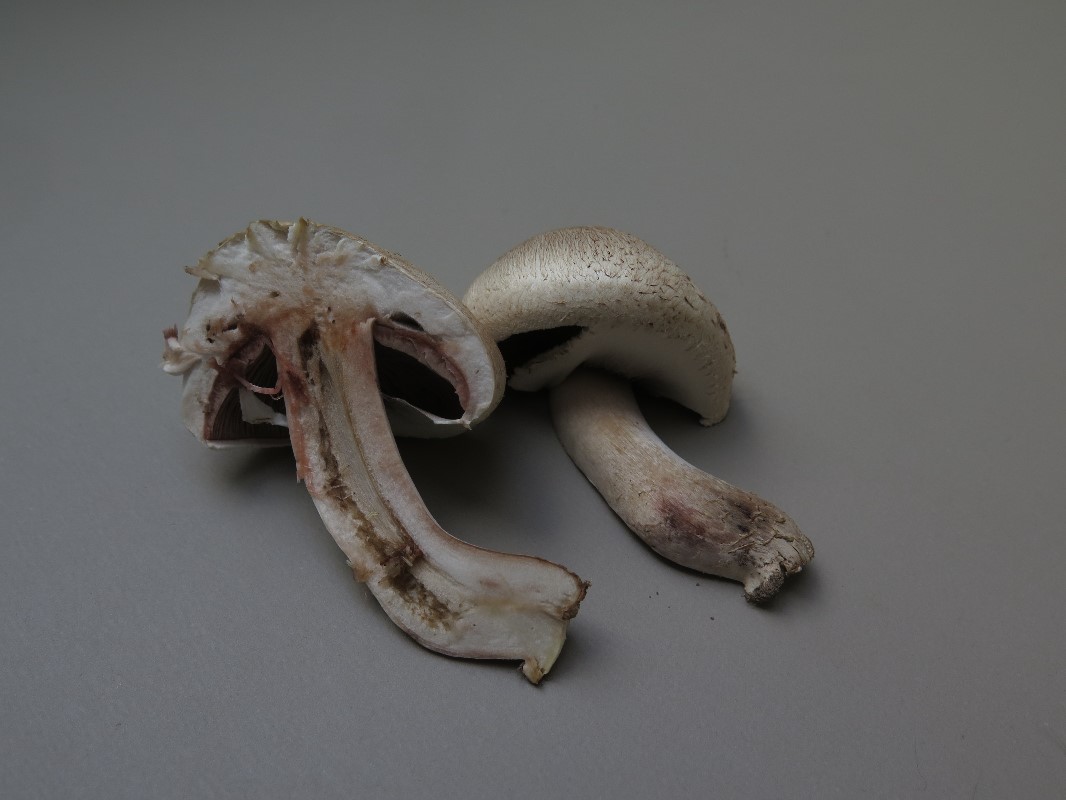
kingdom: Fungi
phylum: Basidiomycota
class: Agaricomycetes
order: Agaricales
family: Agaricaceae
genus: Agaricus
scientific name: Agaricus litoralis
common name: kyst-champignon
